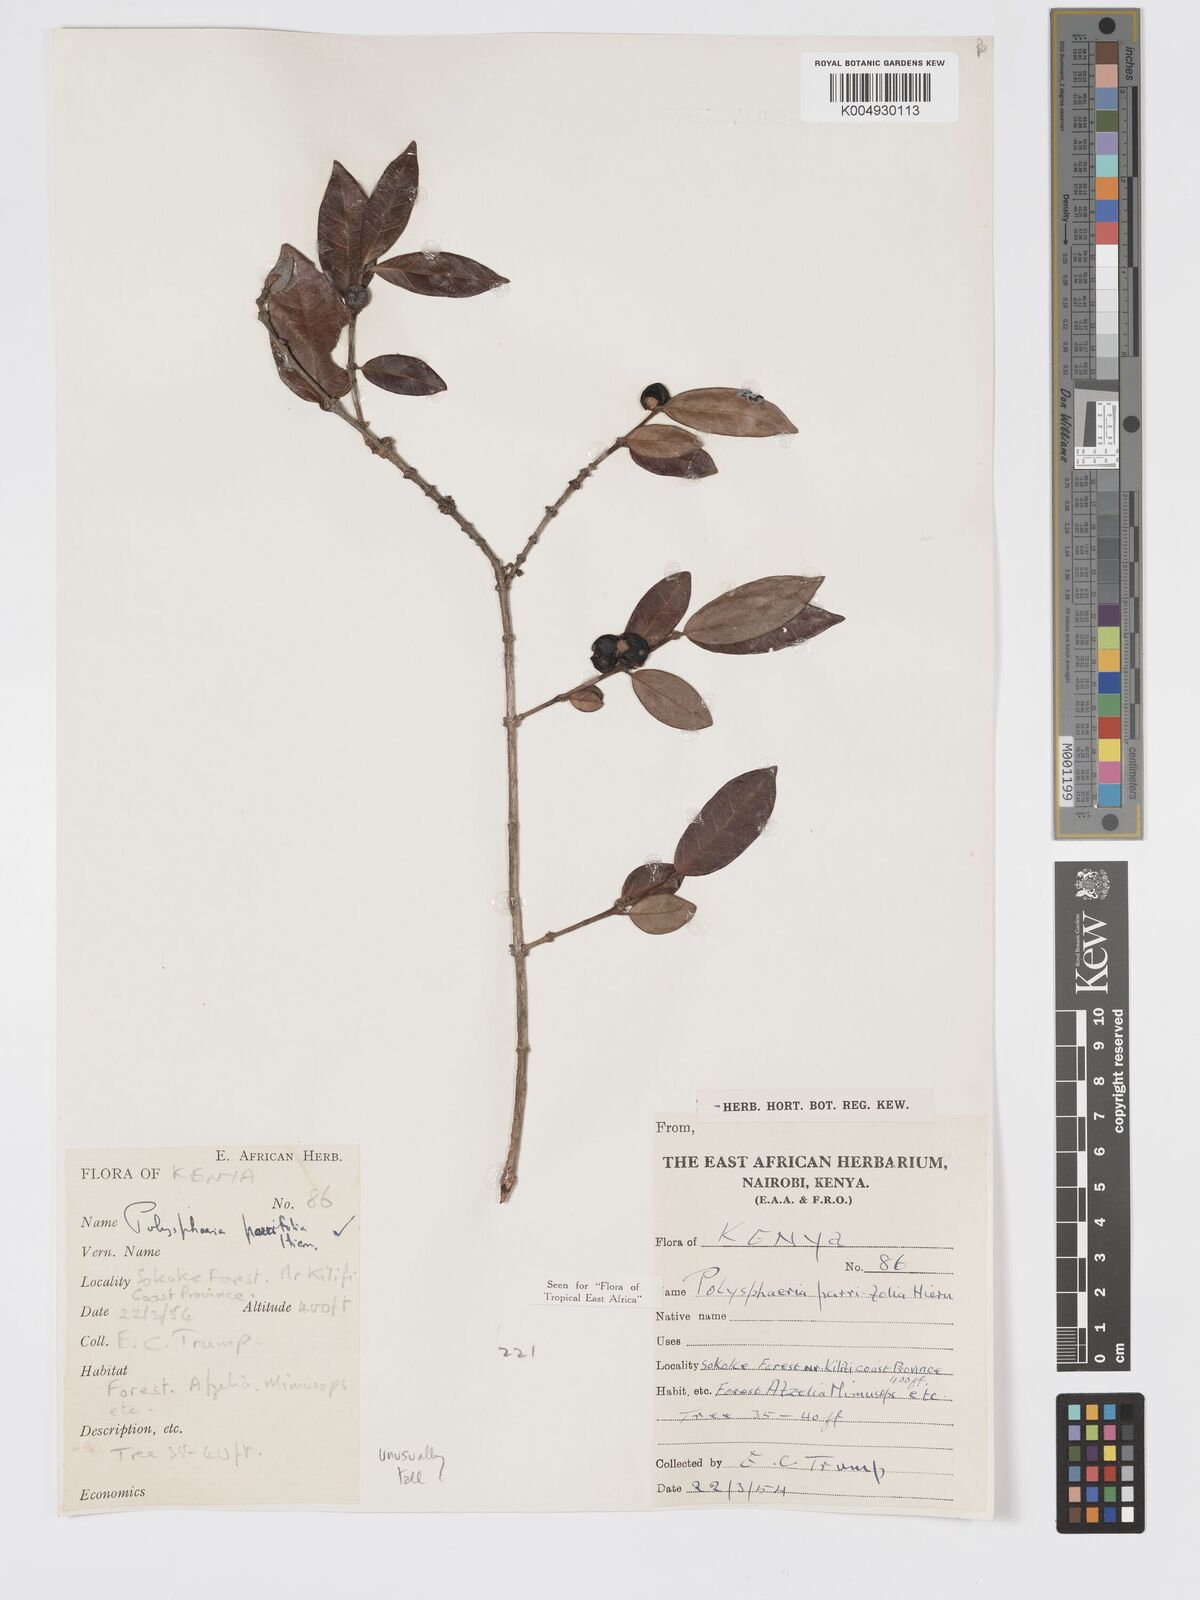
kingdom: Plantae
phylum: Tracheophyta
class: Magnoliopsida
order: Gentianales
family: Rubiaceae
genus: Polysphaeria
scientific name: Polysphaeria parvifolia
